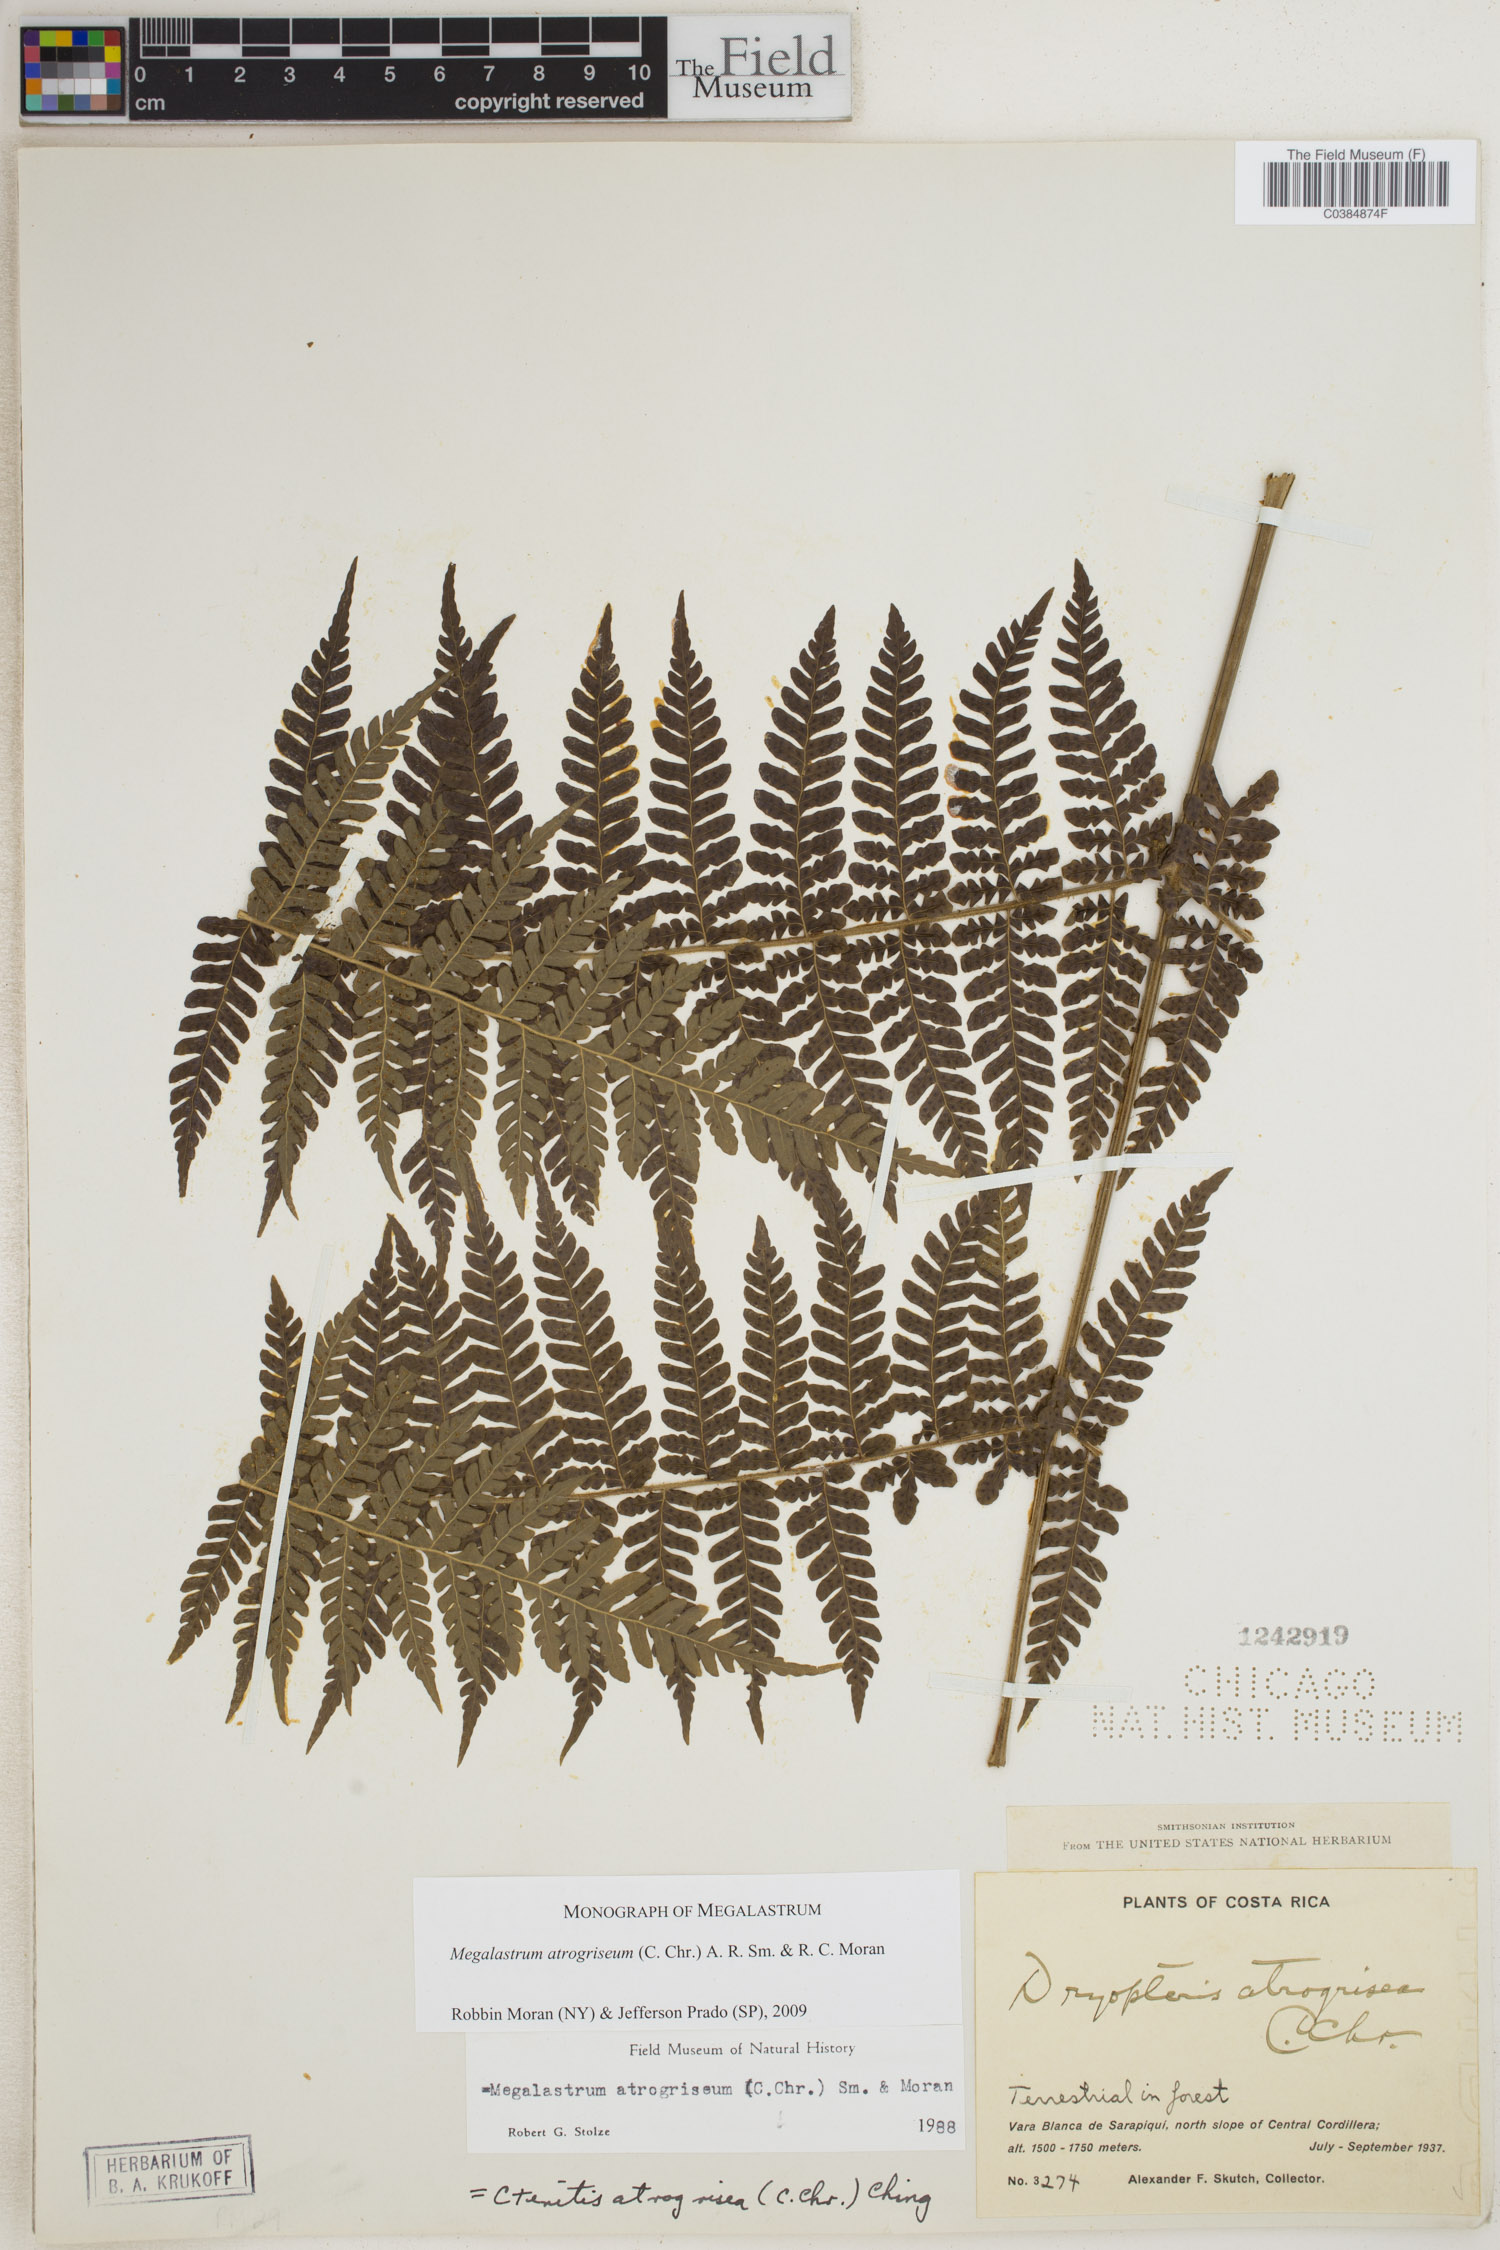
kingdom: Plantae
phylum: Tracheophyta
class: Polypodiopsida
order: Polypodiales
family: Dryopteridaceae
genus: Megalastrum
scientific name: Megalastrum atrogriseum
